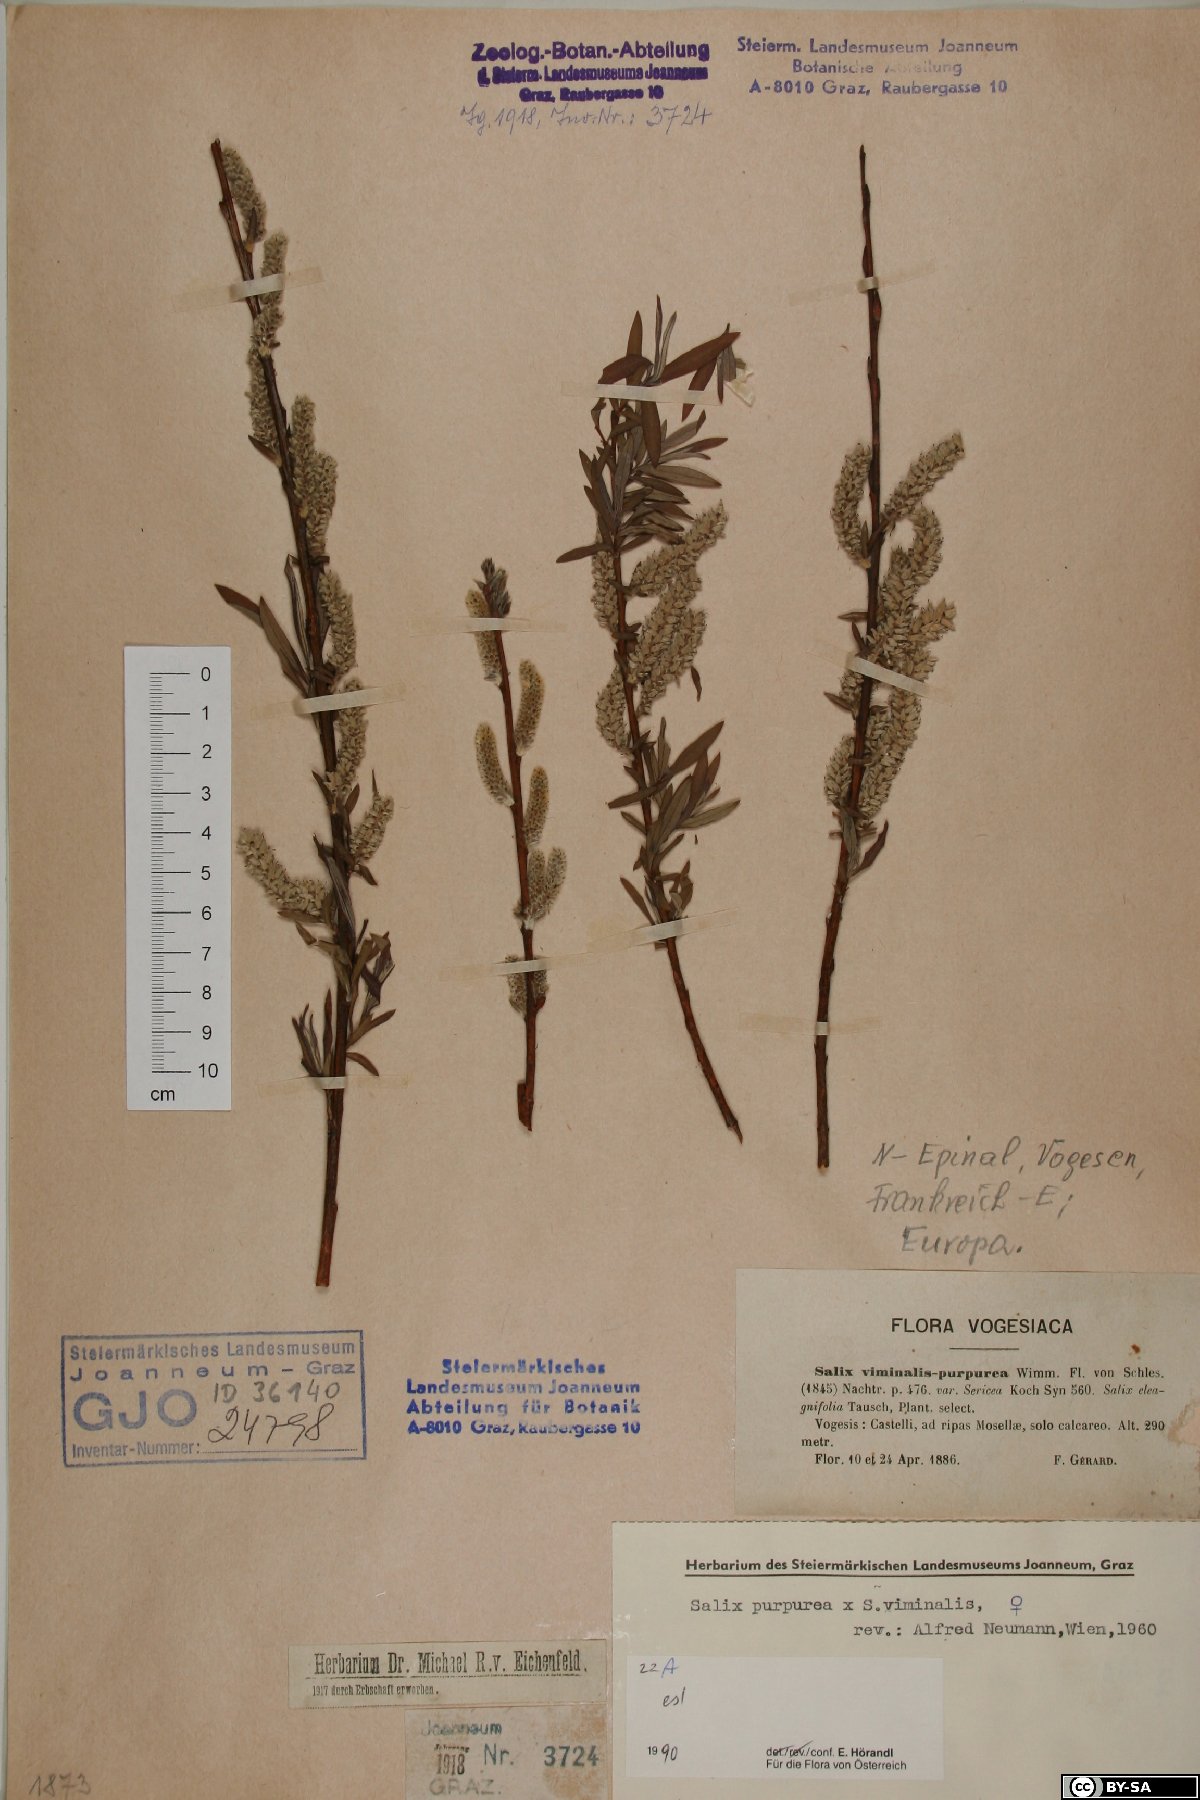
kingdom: Plantae
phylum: Tracheophyta
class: Magnoliopsida
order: Malpighiales
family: Salicaceae
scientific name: Salicaceae
